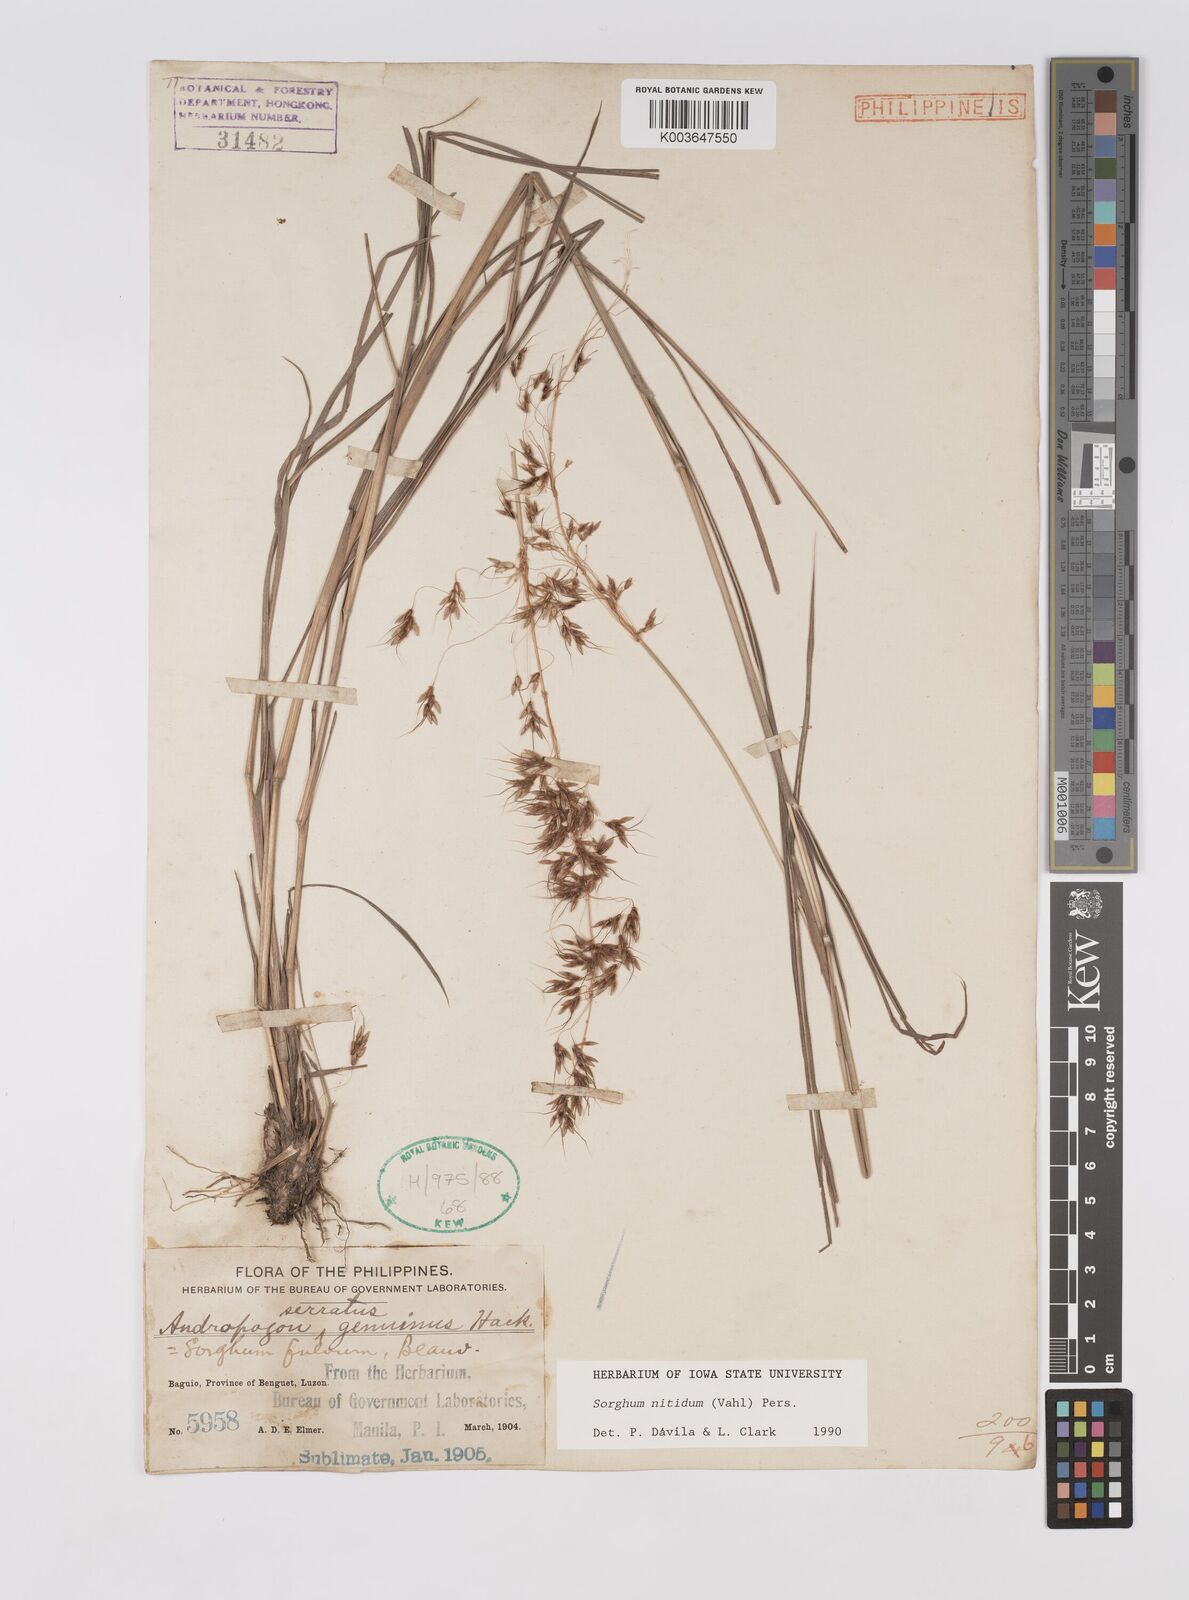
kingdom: Plantae
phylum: Tracheophyta
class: Liliopsida
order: Poales
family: Poaceae
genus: Sorghum
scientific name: Sorghum nitidum
